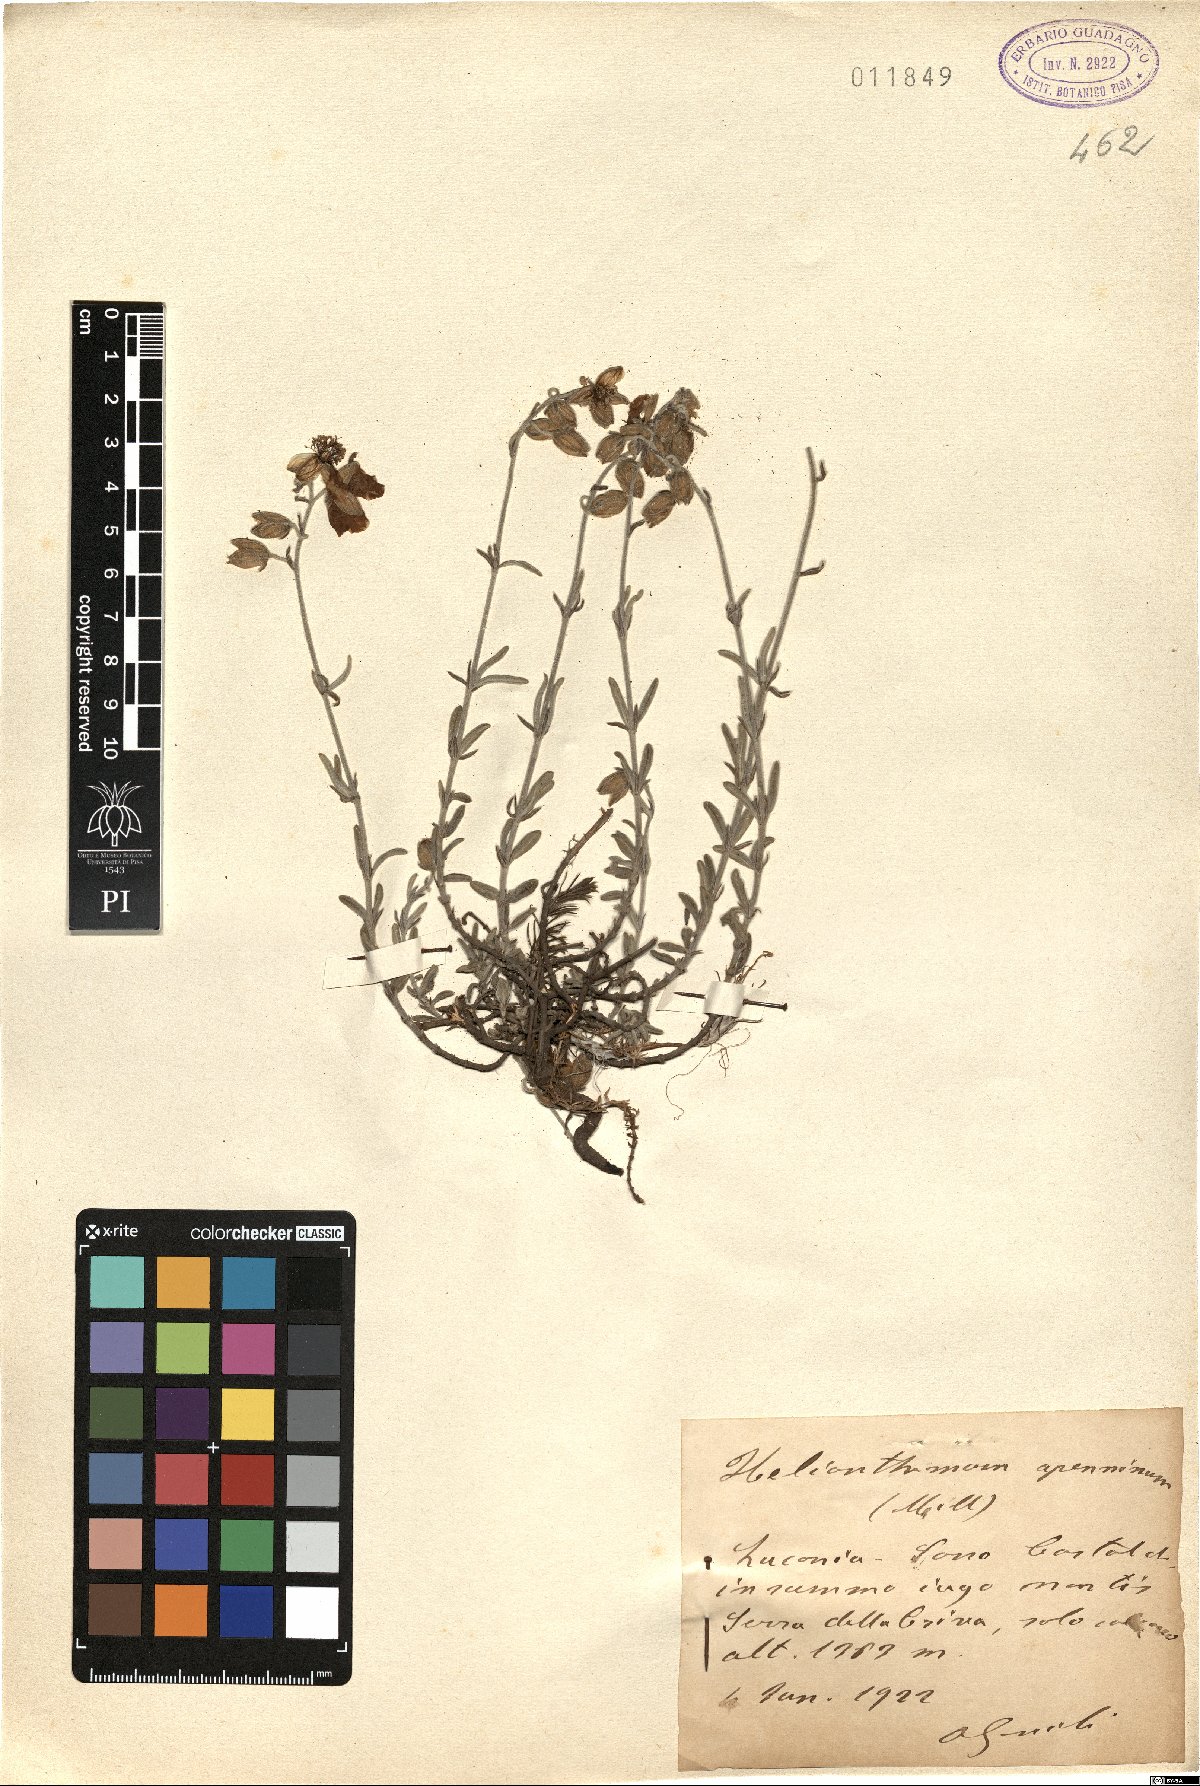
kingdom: Plantae
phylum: Tracheophyta
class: Magnoliopsida
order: Malvales
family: Cistaceae
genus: Helianthemum
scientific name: Helianthemum apenninum
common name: White rock-rose
